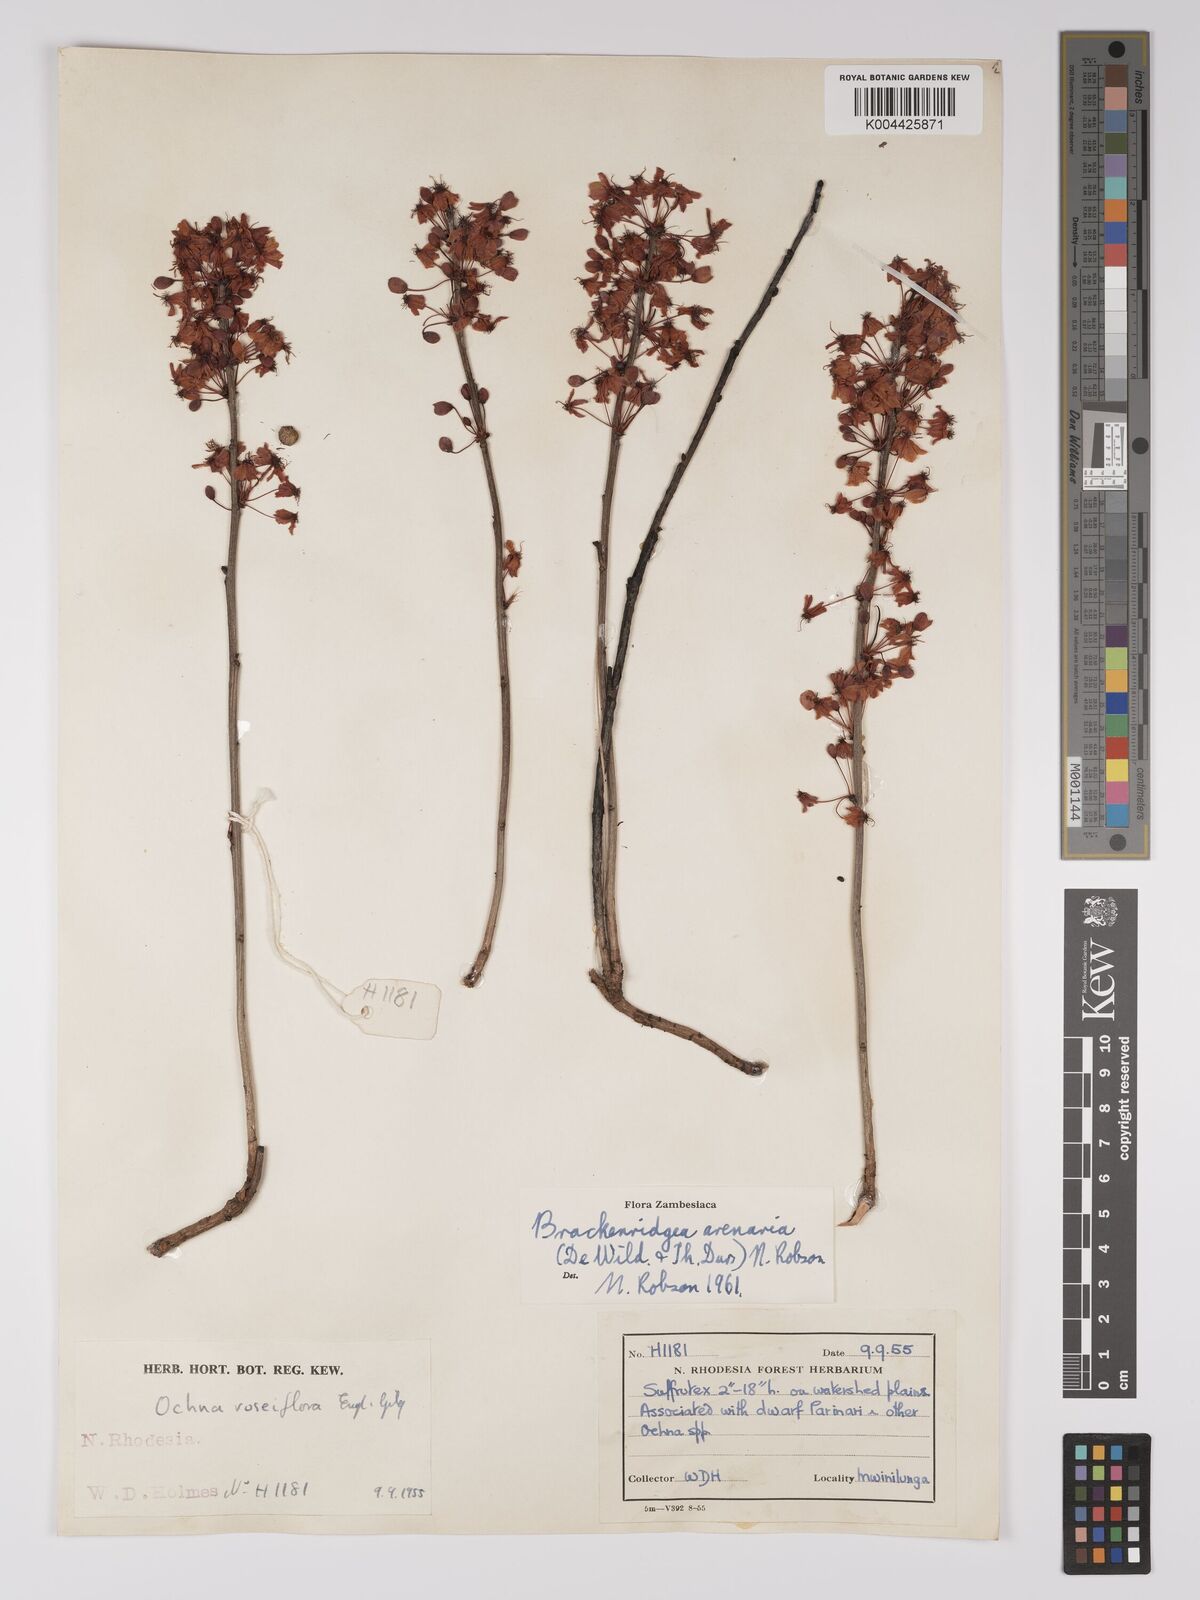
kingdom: Plantae
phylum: Tracheophyta
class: Magnoliopsida
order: Malpighiales
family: Ochnaceae
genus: Ochna
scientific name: Ochna arenaria
